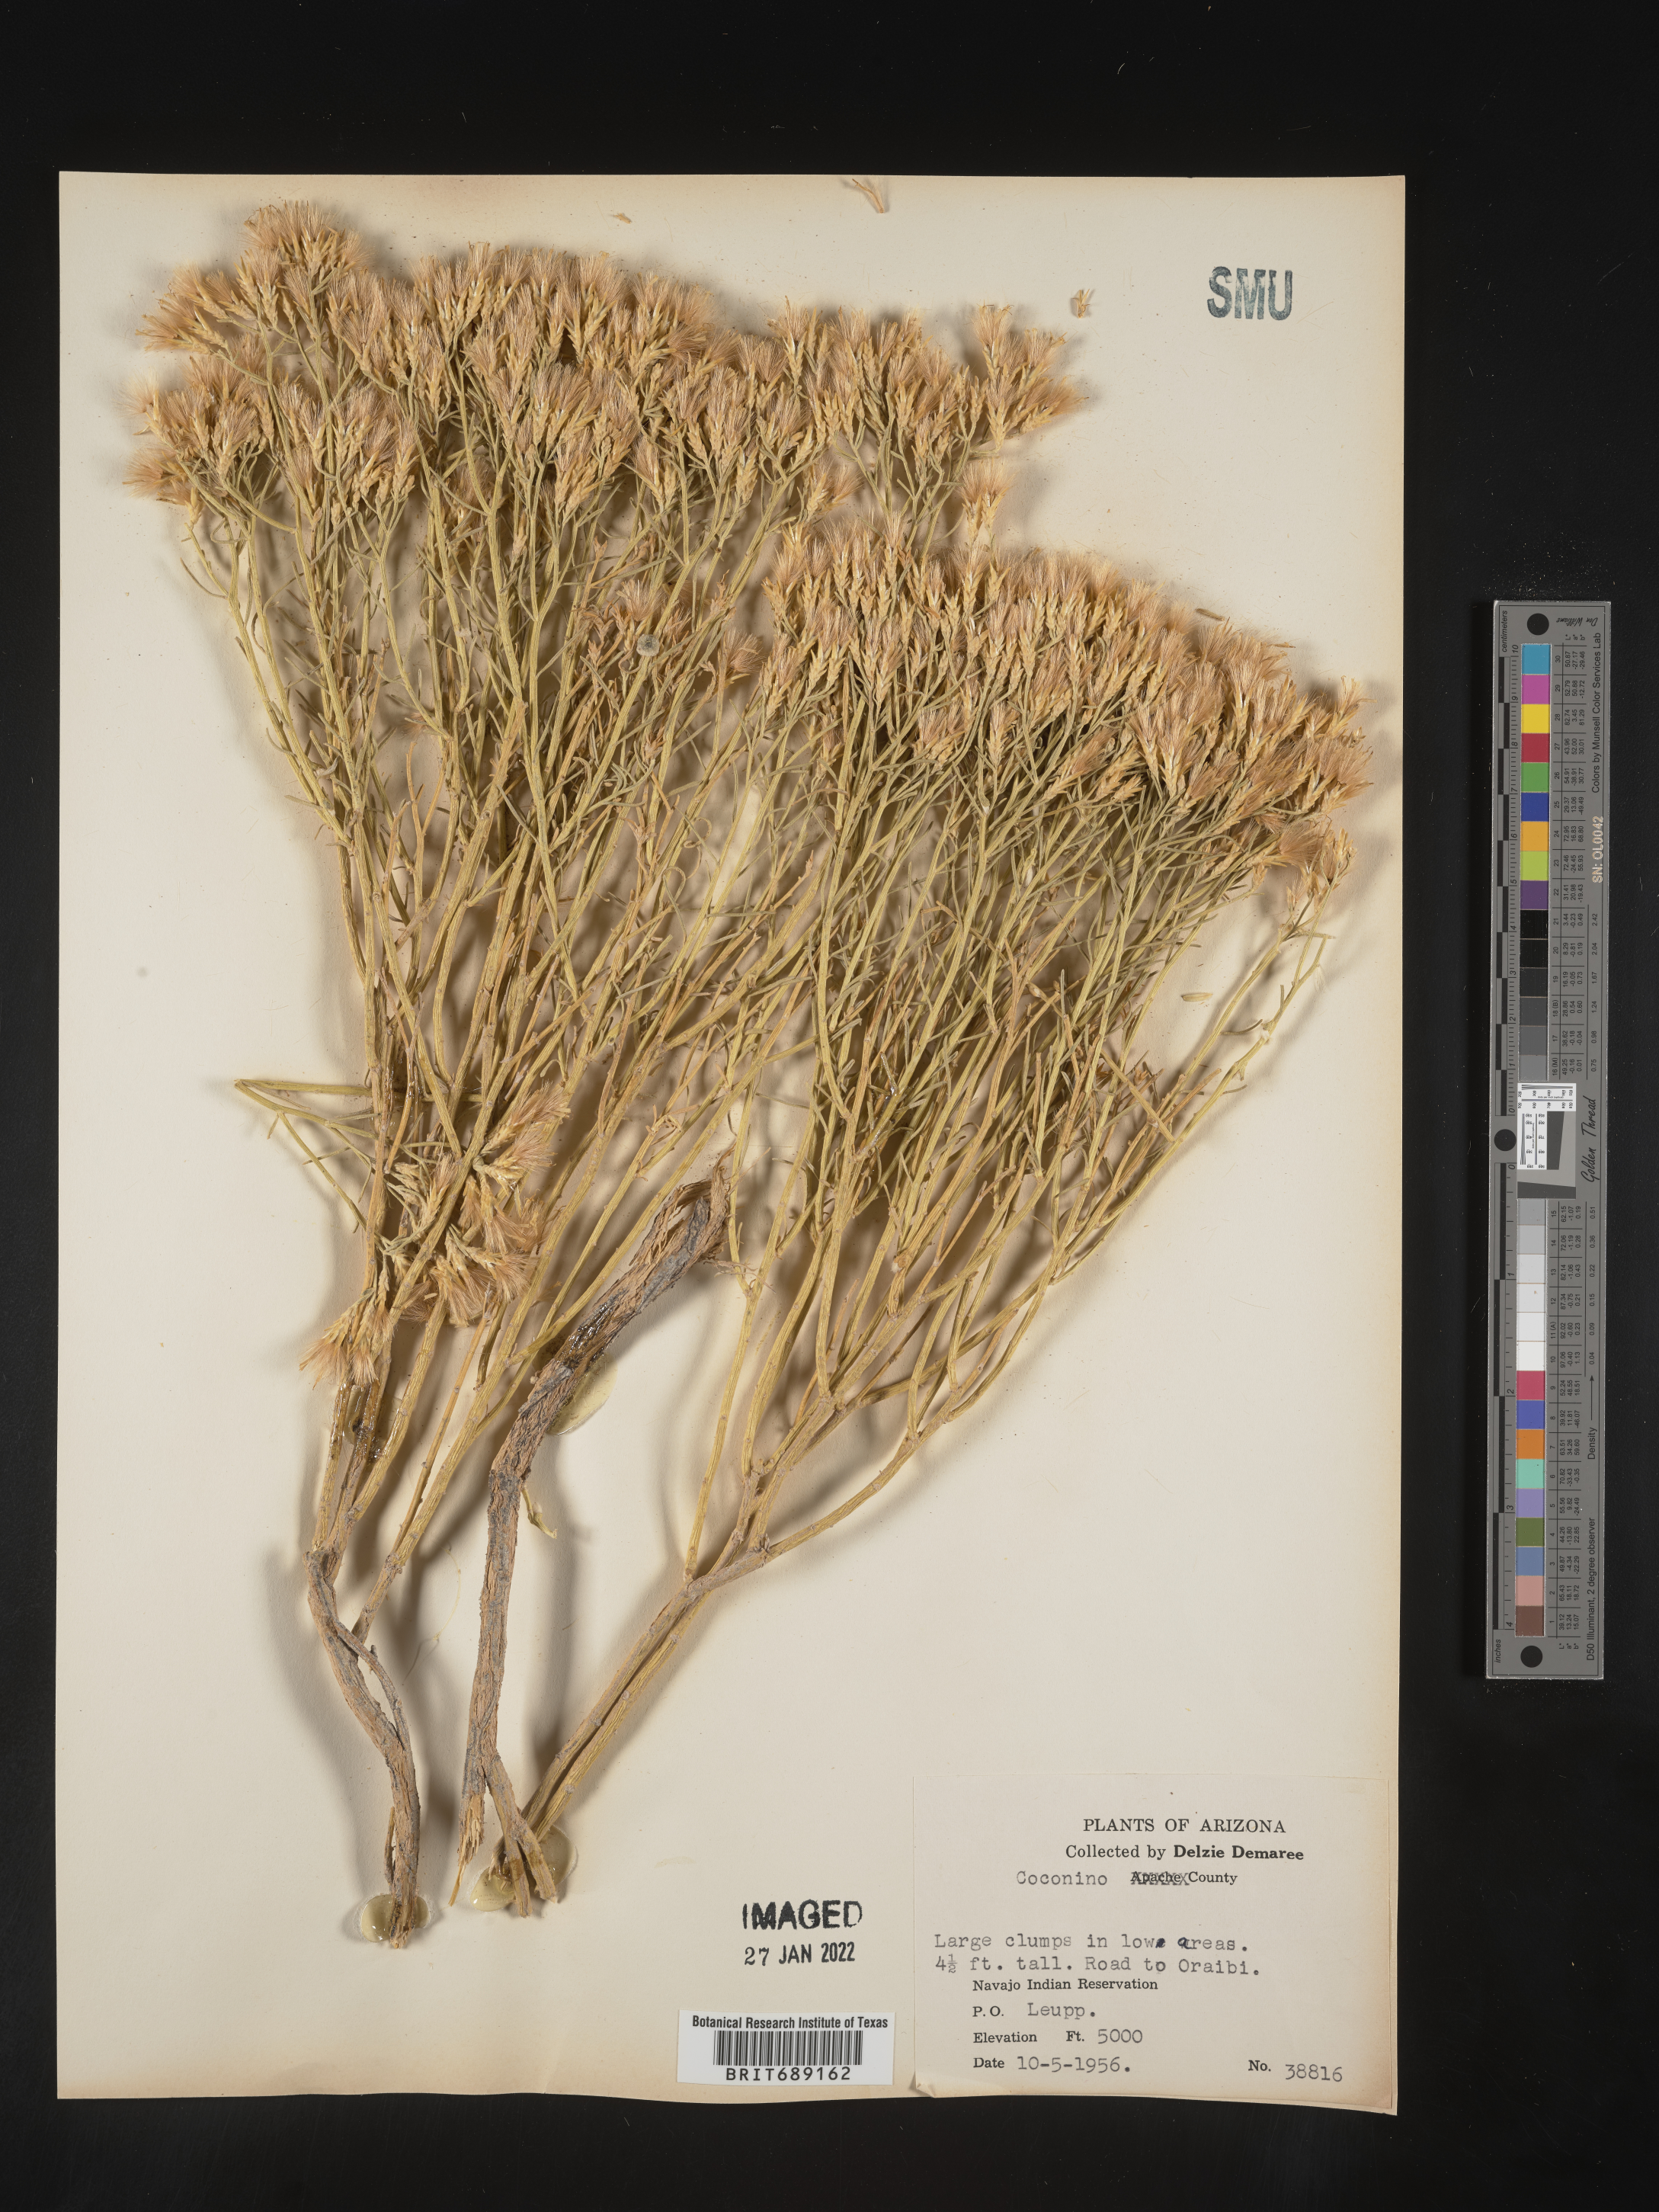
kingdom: Plantae
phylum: Tracheophyta
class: Magnoliopsida
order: Asterales
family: Asteraceae
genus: Chrysothamnus
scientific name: Chrysothamnus
